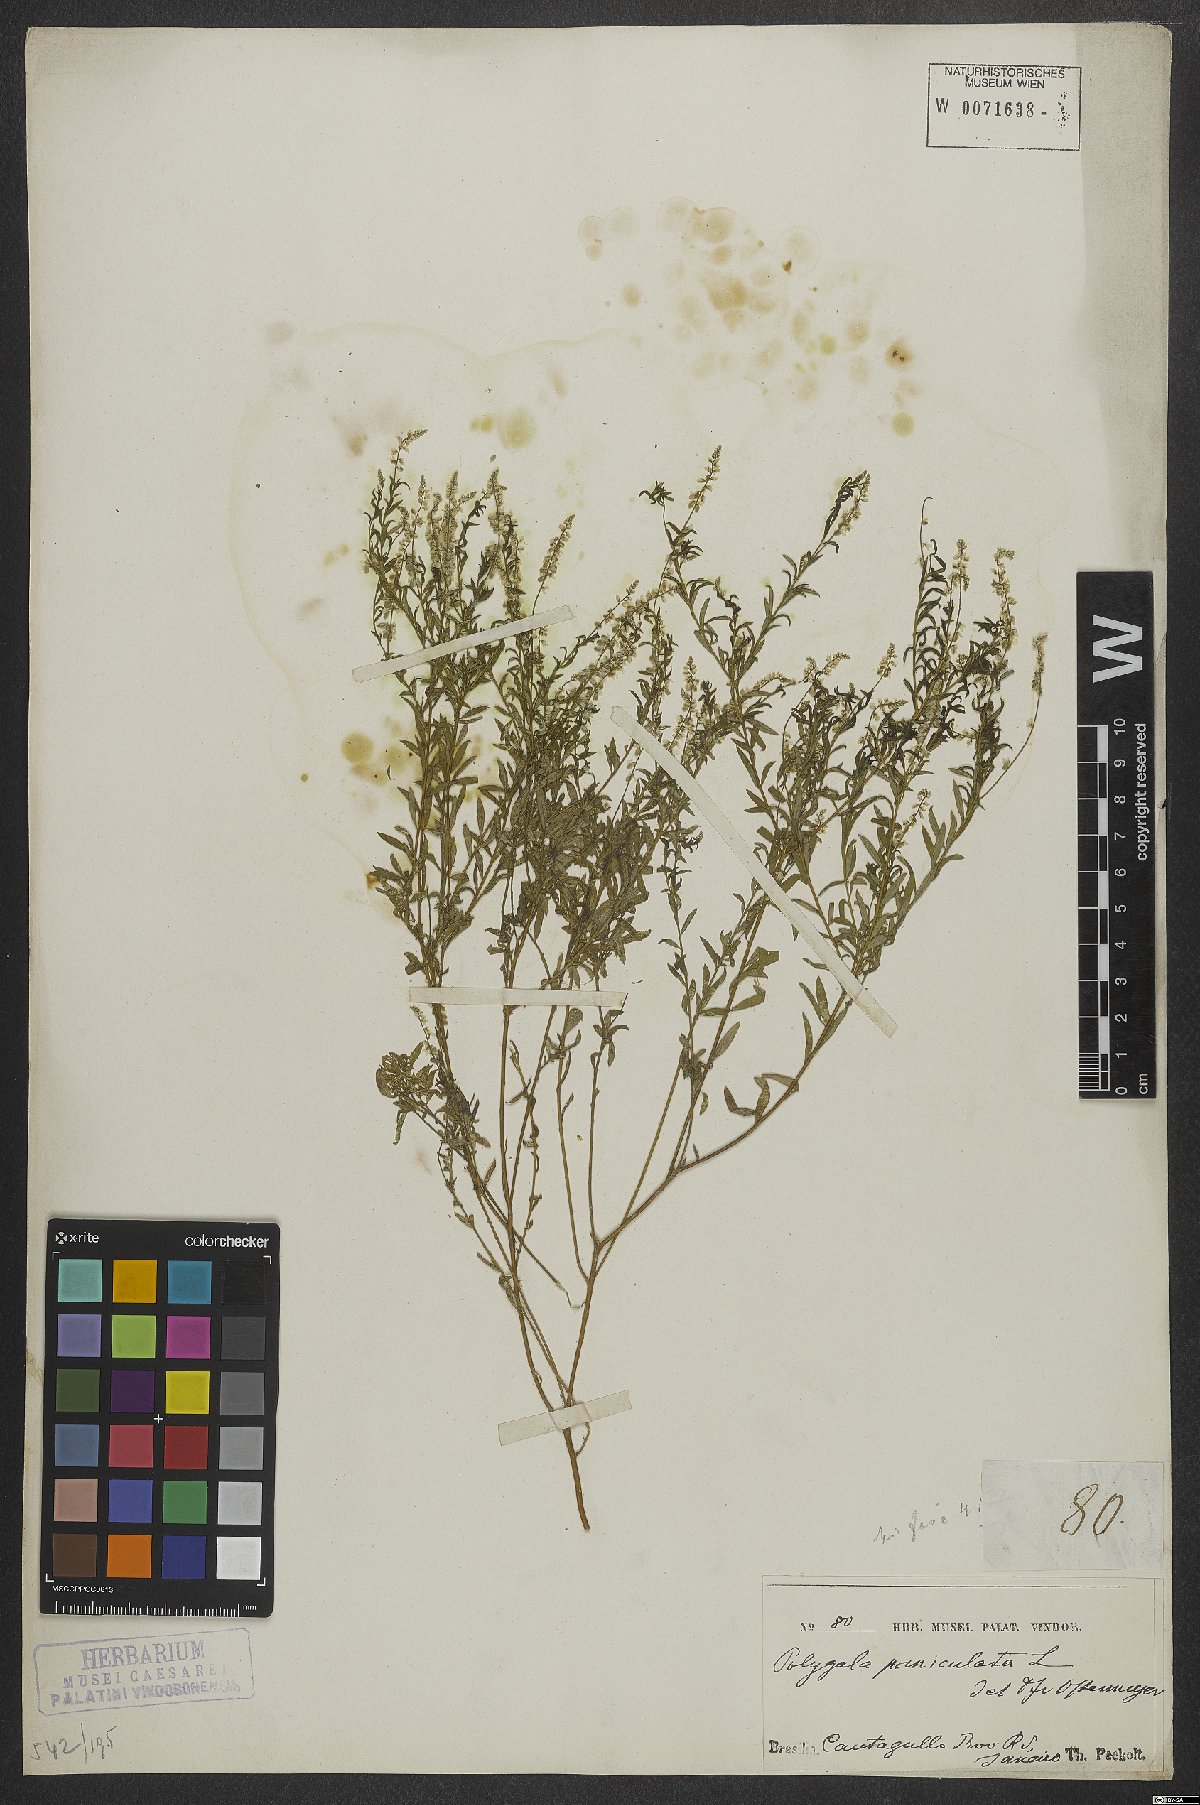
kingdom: Plantae
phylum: Tracheophyta
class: Magnoliopsida
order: Fabales
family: Polygalaceae
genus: Polygala
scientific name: Polygala exilis
